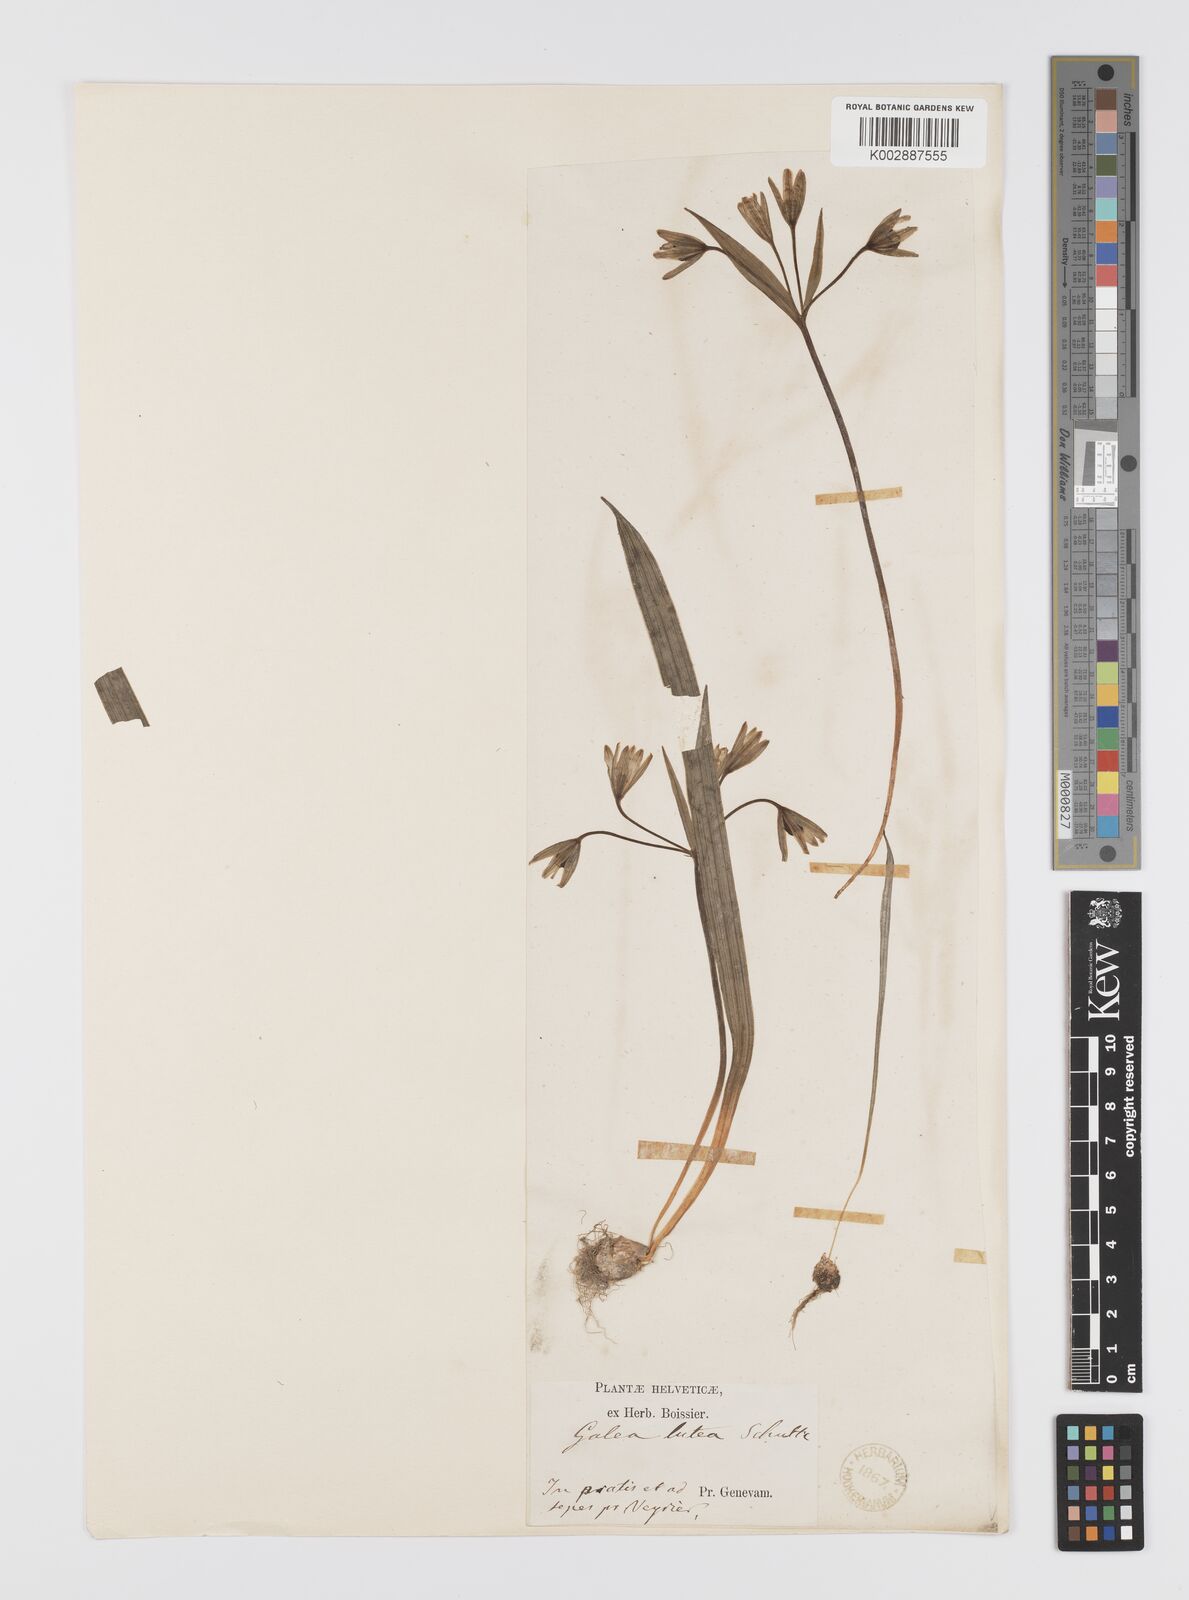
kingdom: Plantae
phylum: Tracheophyta
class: Liliopsida
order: Liliales
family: Liliaceae
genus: Gagea
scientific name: Gagea lutea
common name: Yellow star-of-bethlehem
